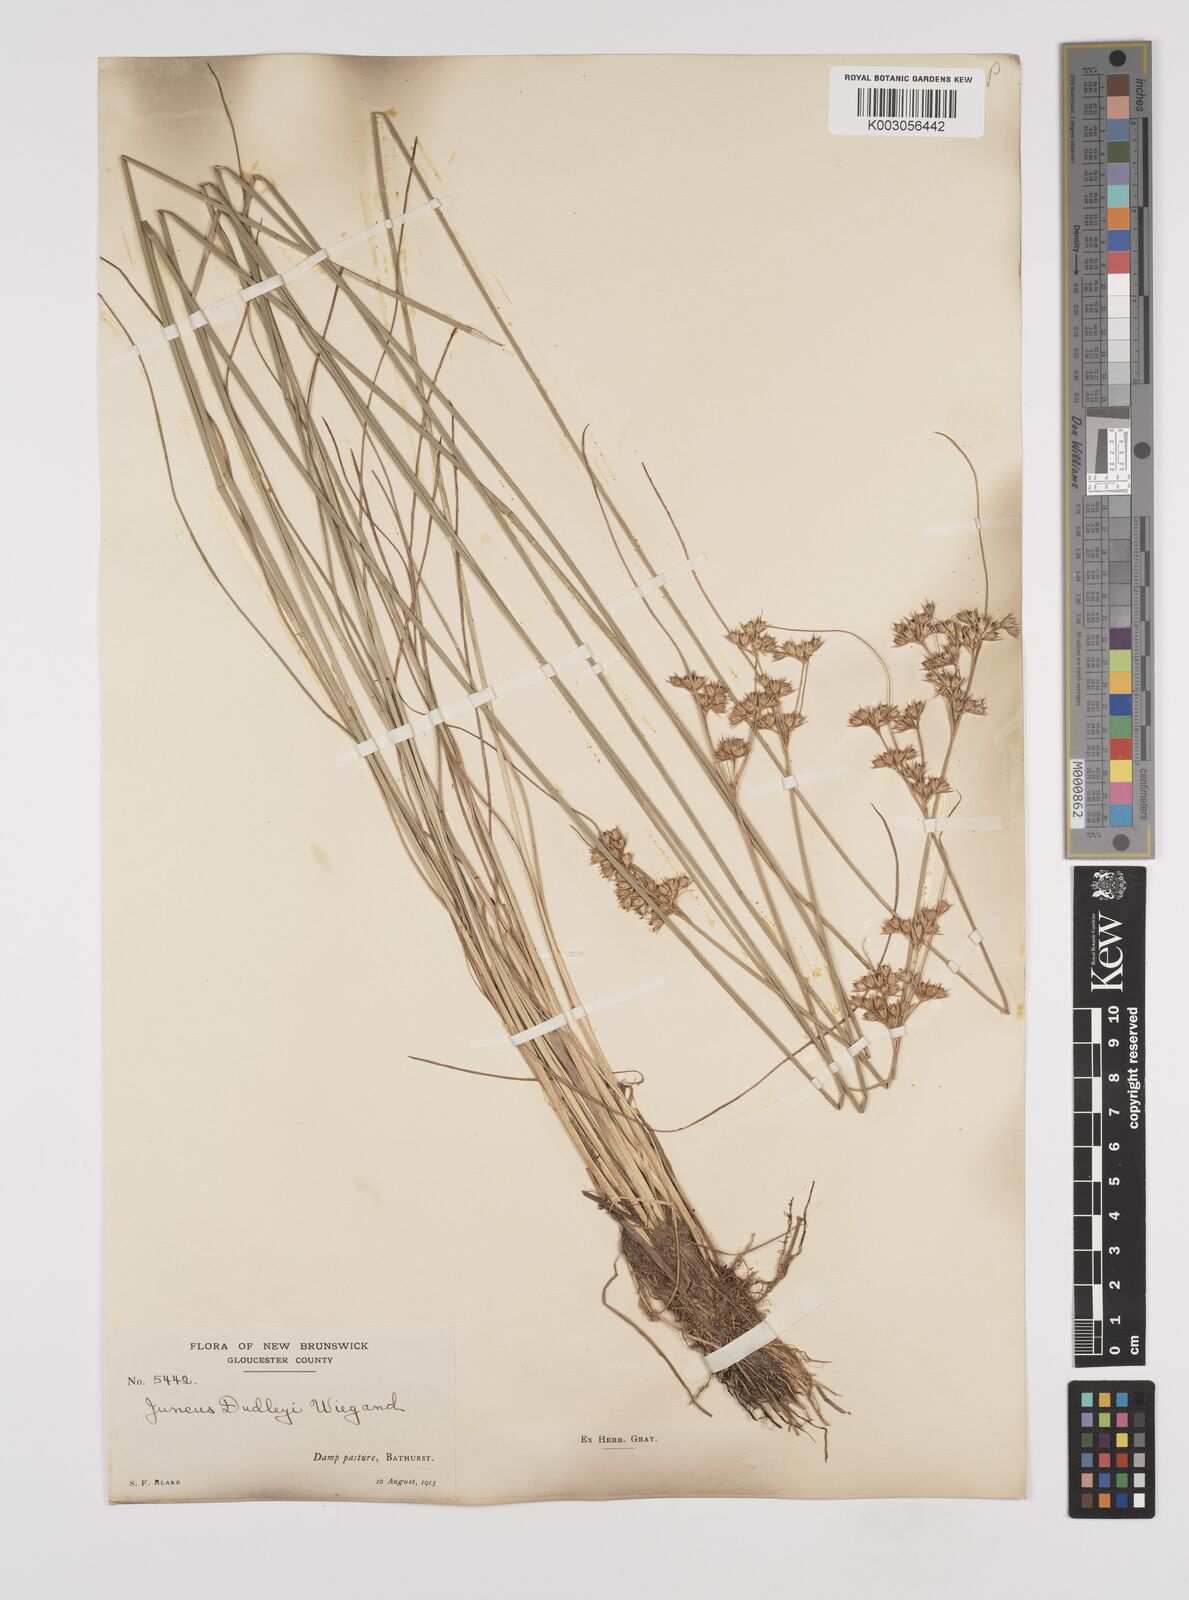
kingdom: Plantae
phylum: Tracheophyta
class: Liliopsida
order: Poales
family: Juncaceae
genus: Juncus
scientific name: Juncus dudleyi
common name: Dudley's rush
